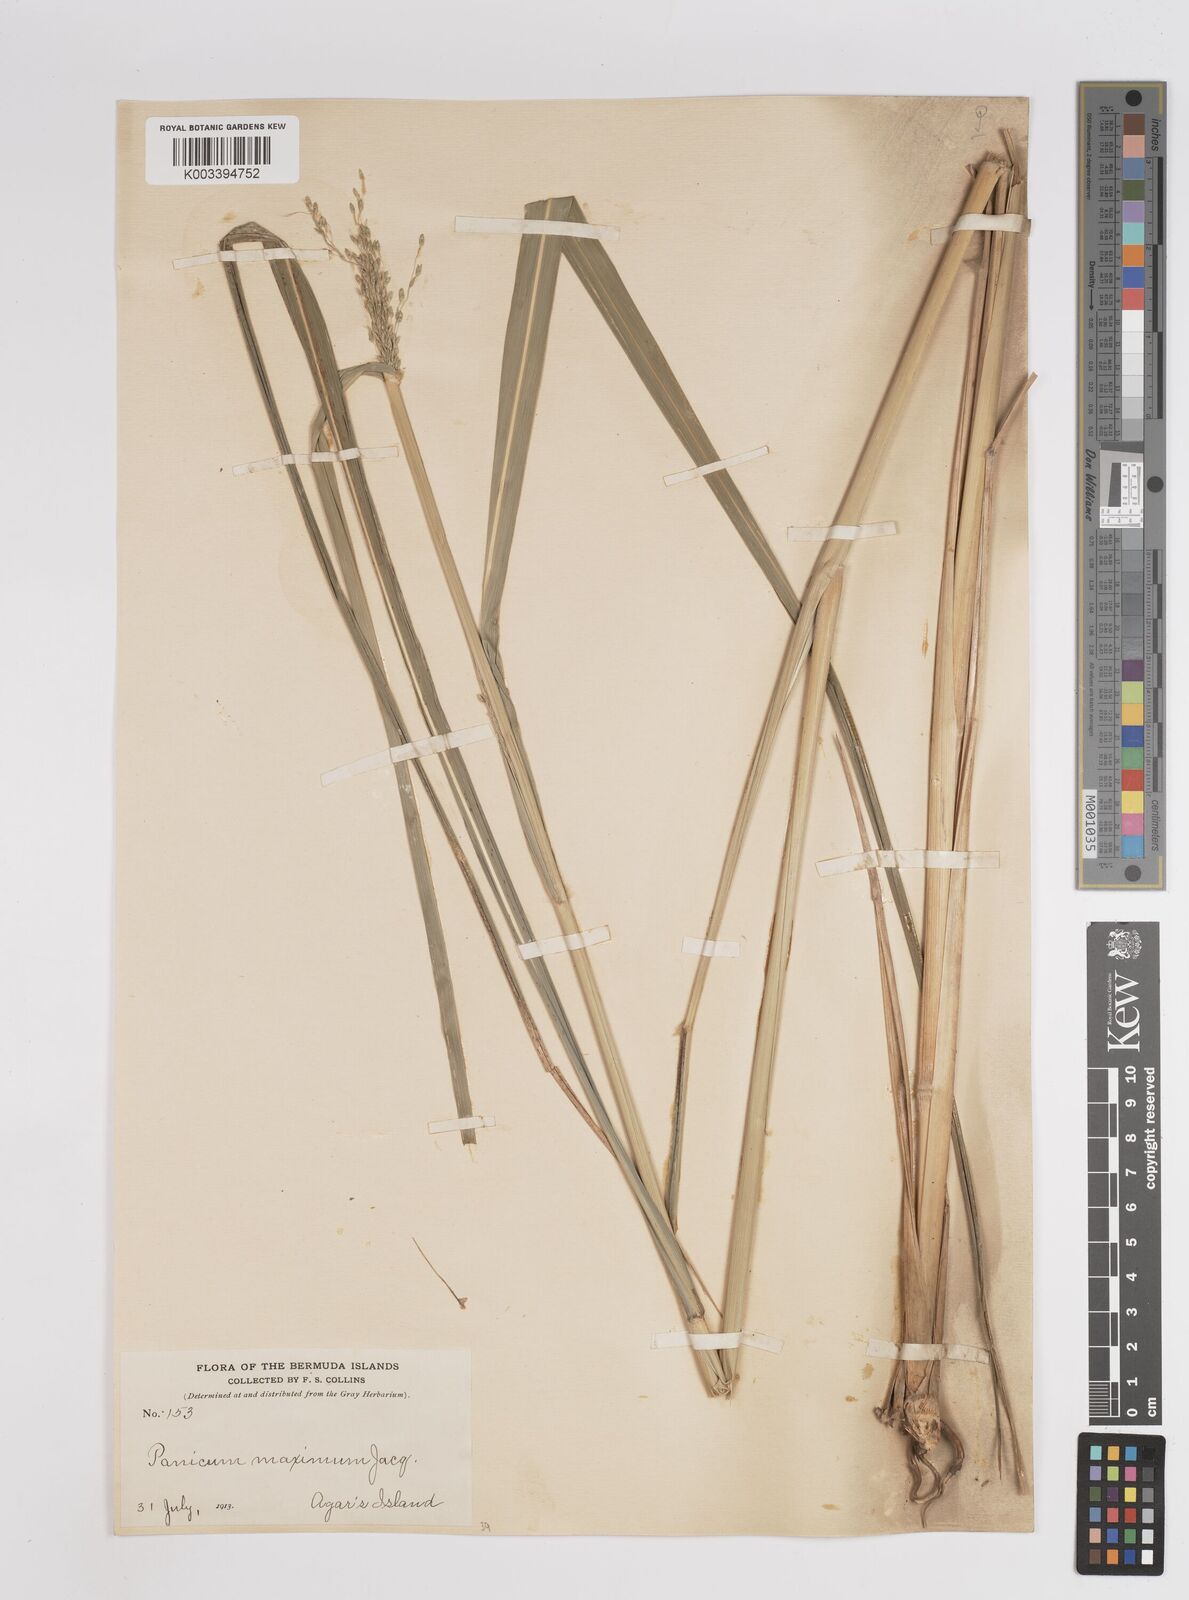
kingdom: Plantae
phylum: Tracheophyta
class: Liliopsida
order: Poales
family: Poaceae
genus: Megathyrsus
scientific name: Megathyrsus maximus
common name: Guineagrass
